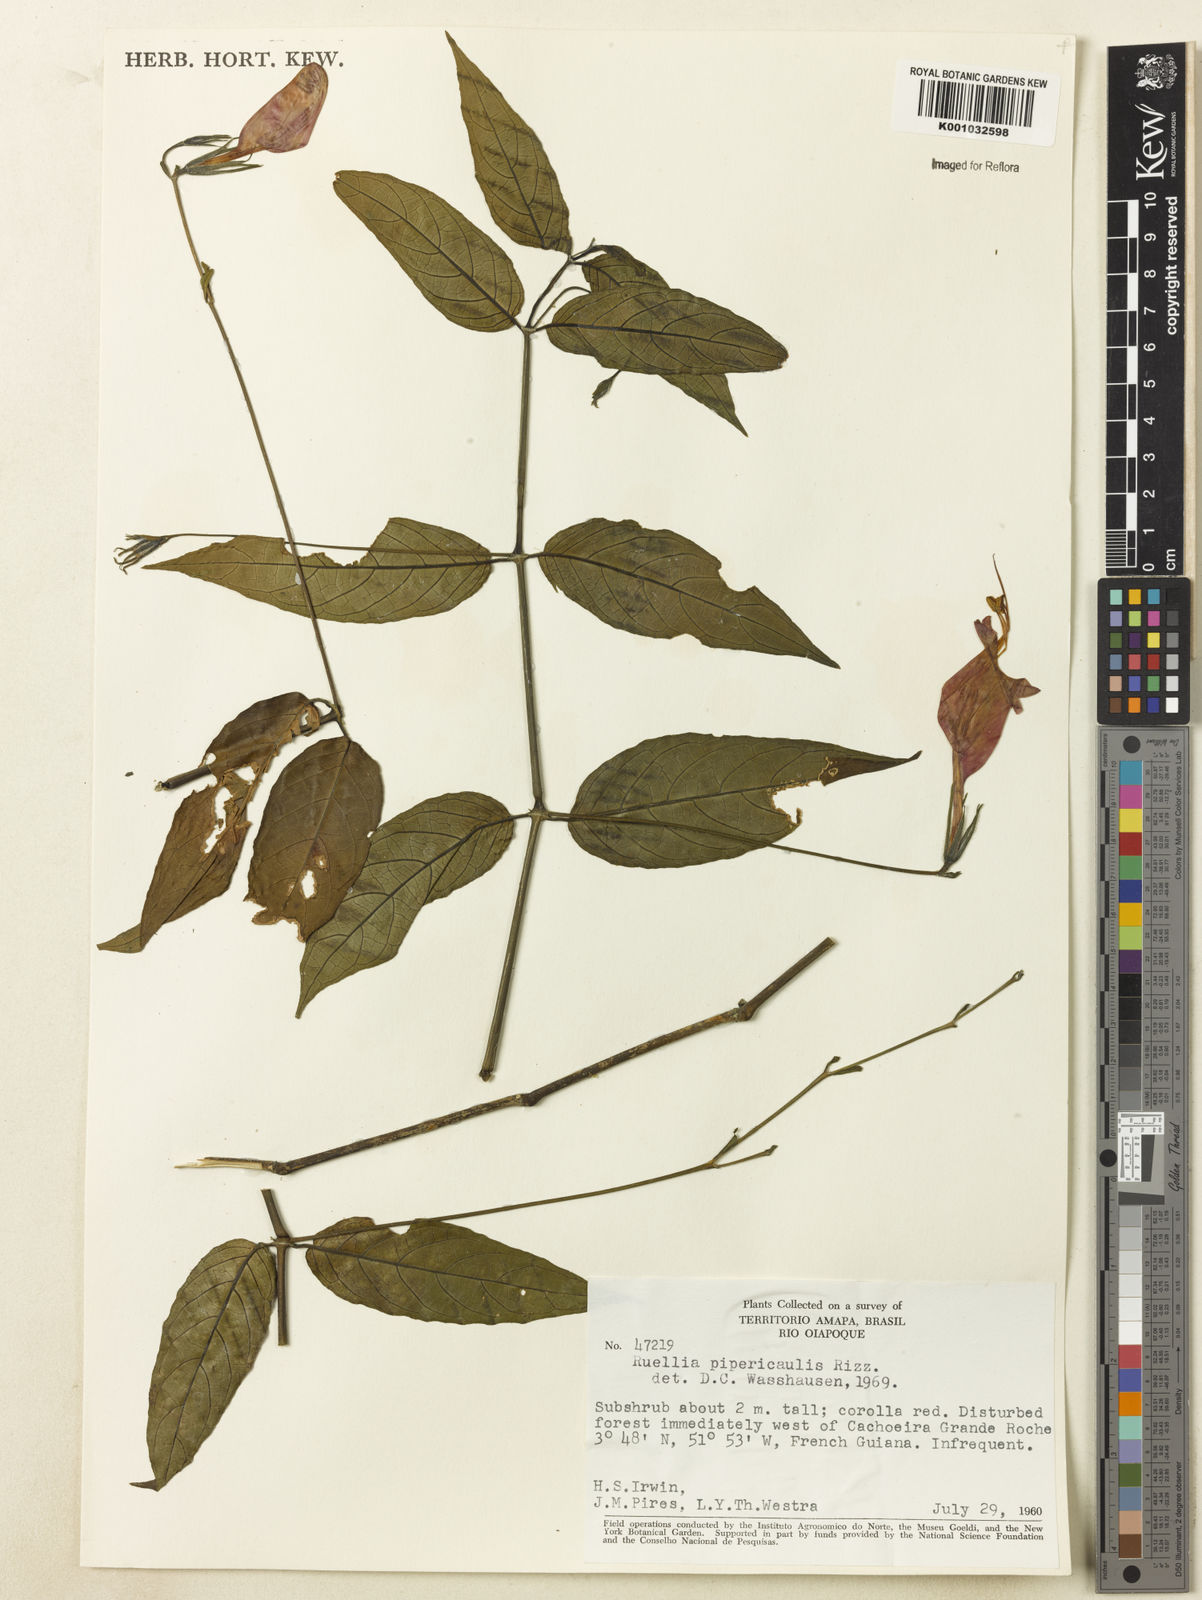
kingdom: Plantae
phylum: Tracheophyta
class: Magnoliopsida
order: Lamiales
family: Acanthaceae
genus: Ruellia
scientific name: Ruellia inflata
